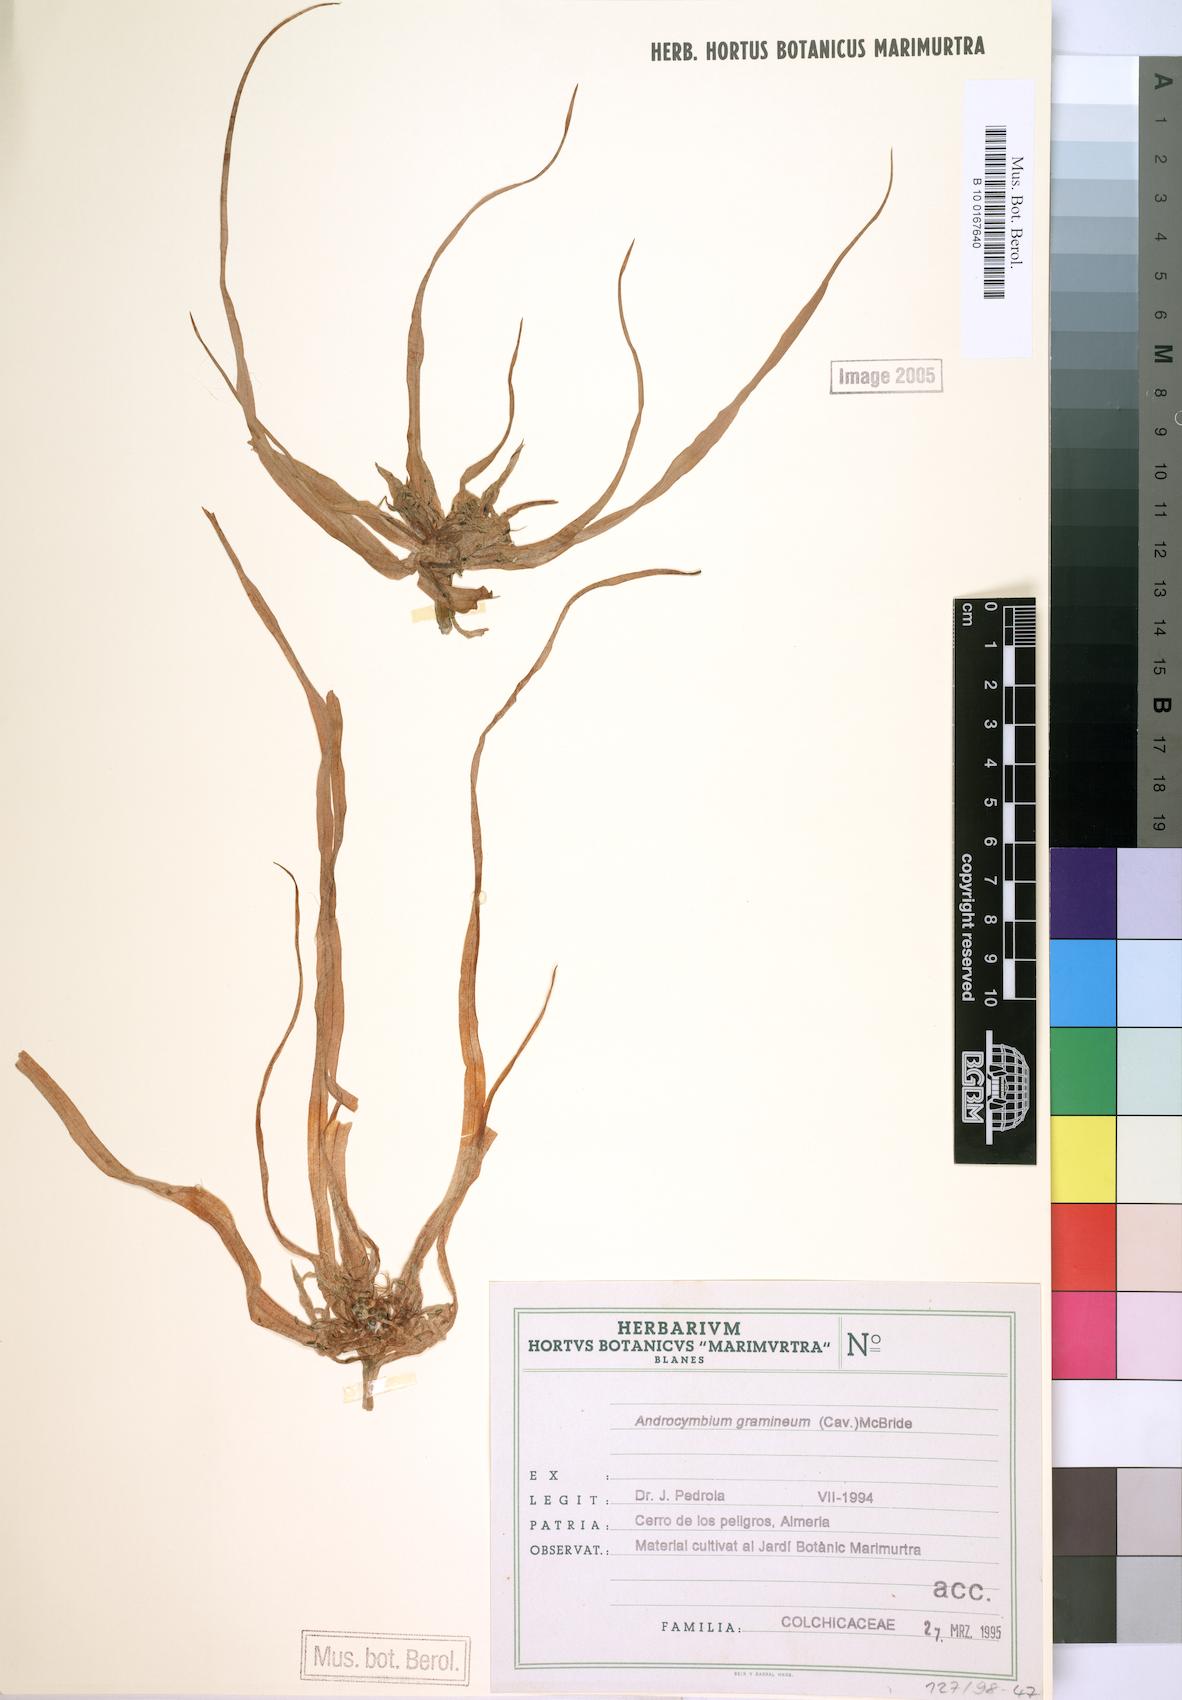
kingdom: Plantae
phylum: Tracheophyta
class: Liliopsida
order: Liliales
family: Colchicaceae
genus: Colchicum
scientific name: Colchicum gramineum
